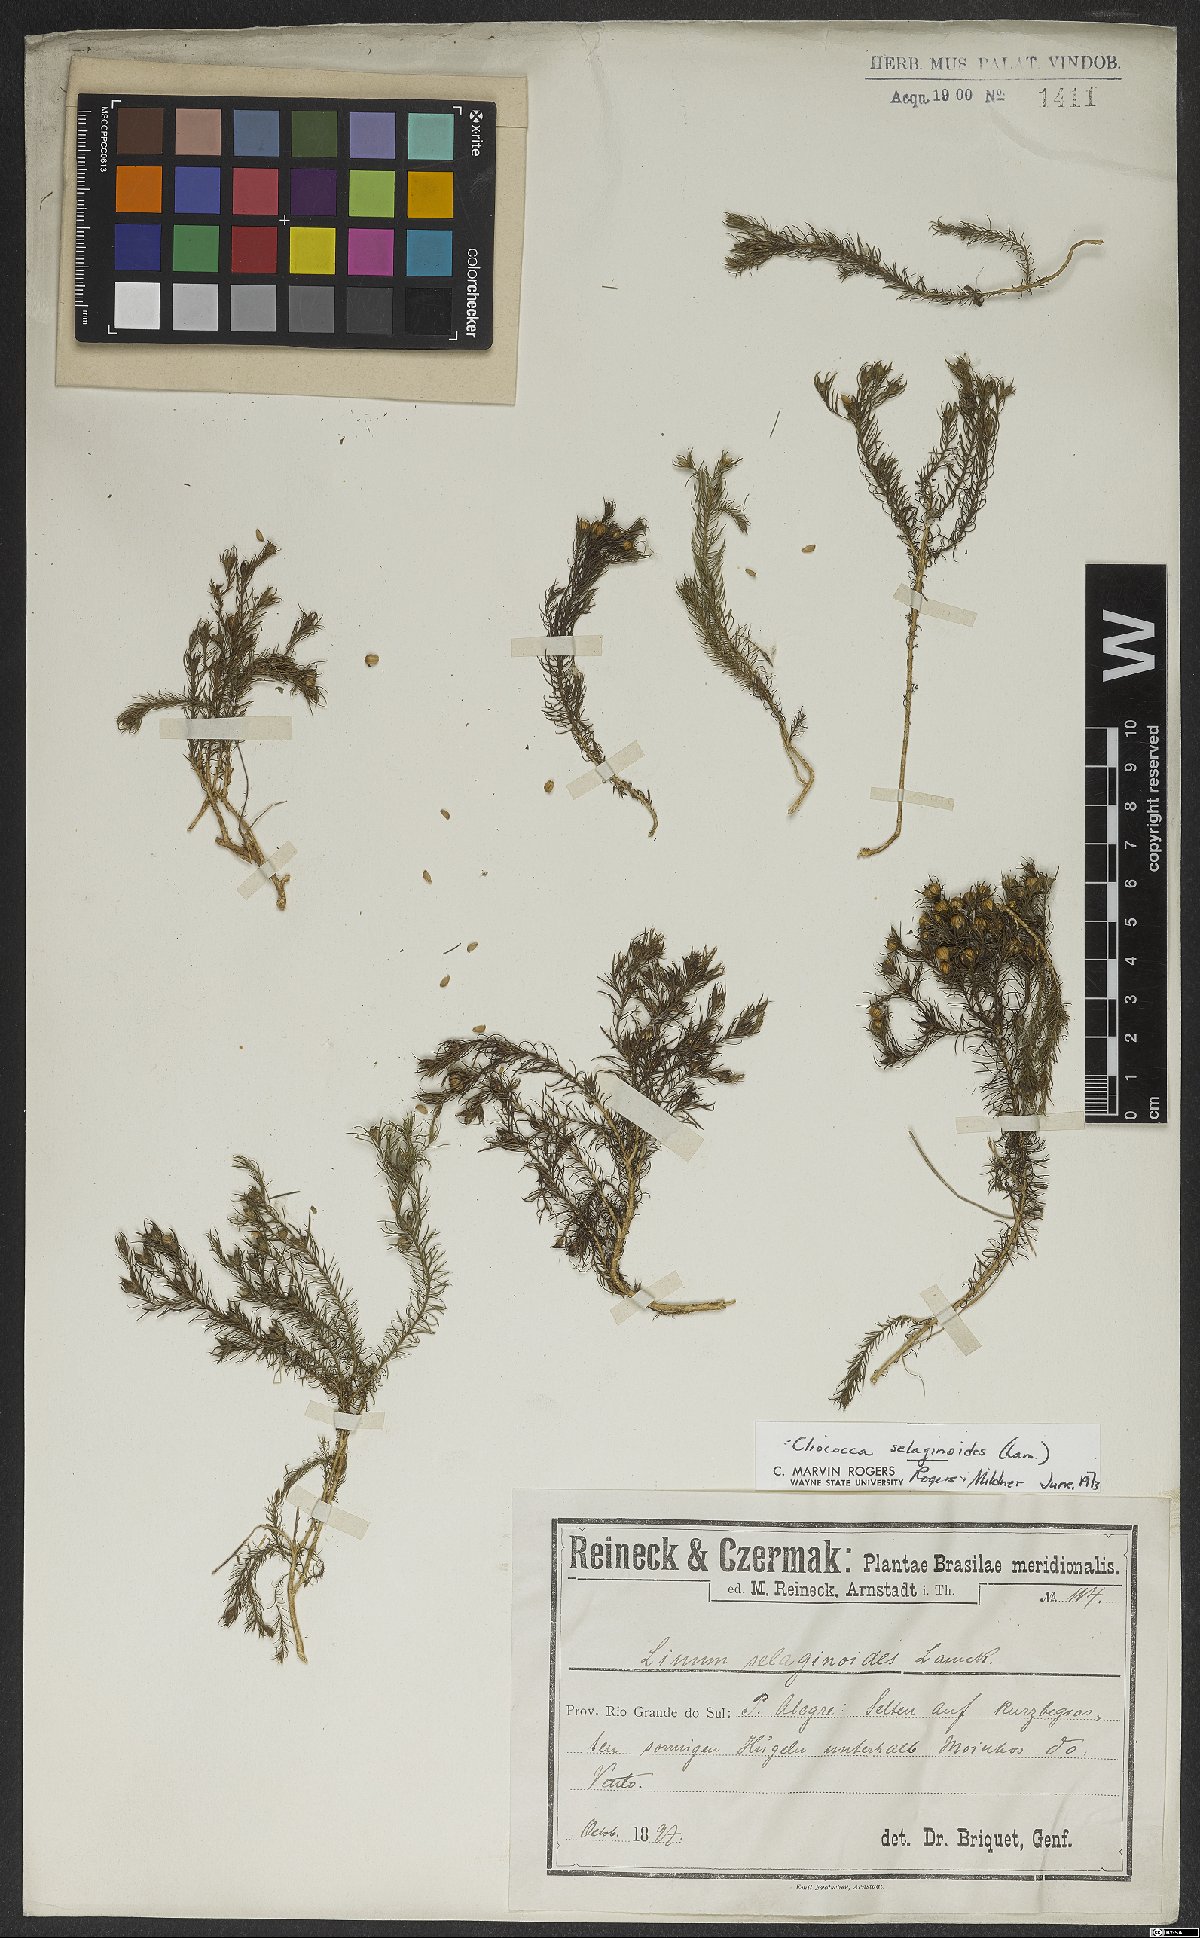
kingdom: Plantae
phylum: Tracheophyta
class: Magnoliopsida
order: Malpighiales
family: Linaceae
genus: Cliococca
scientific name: Cliococca selaginoides
